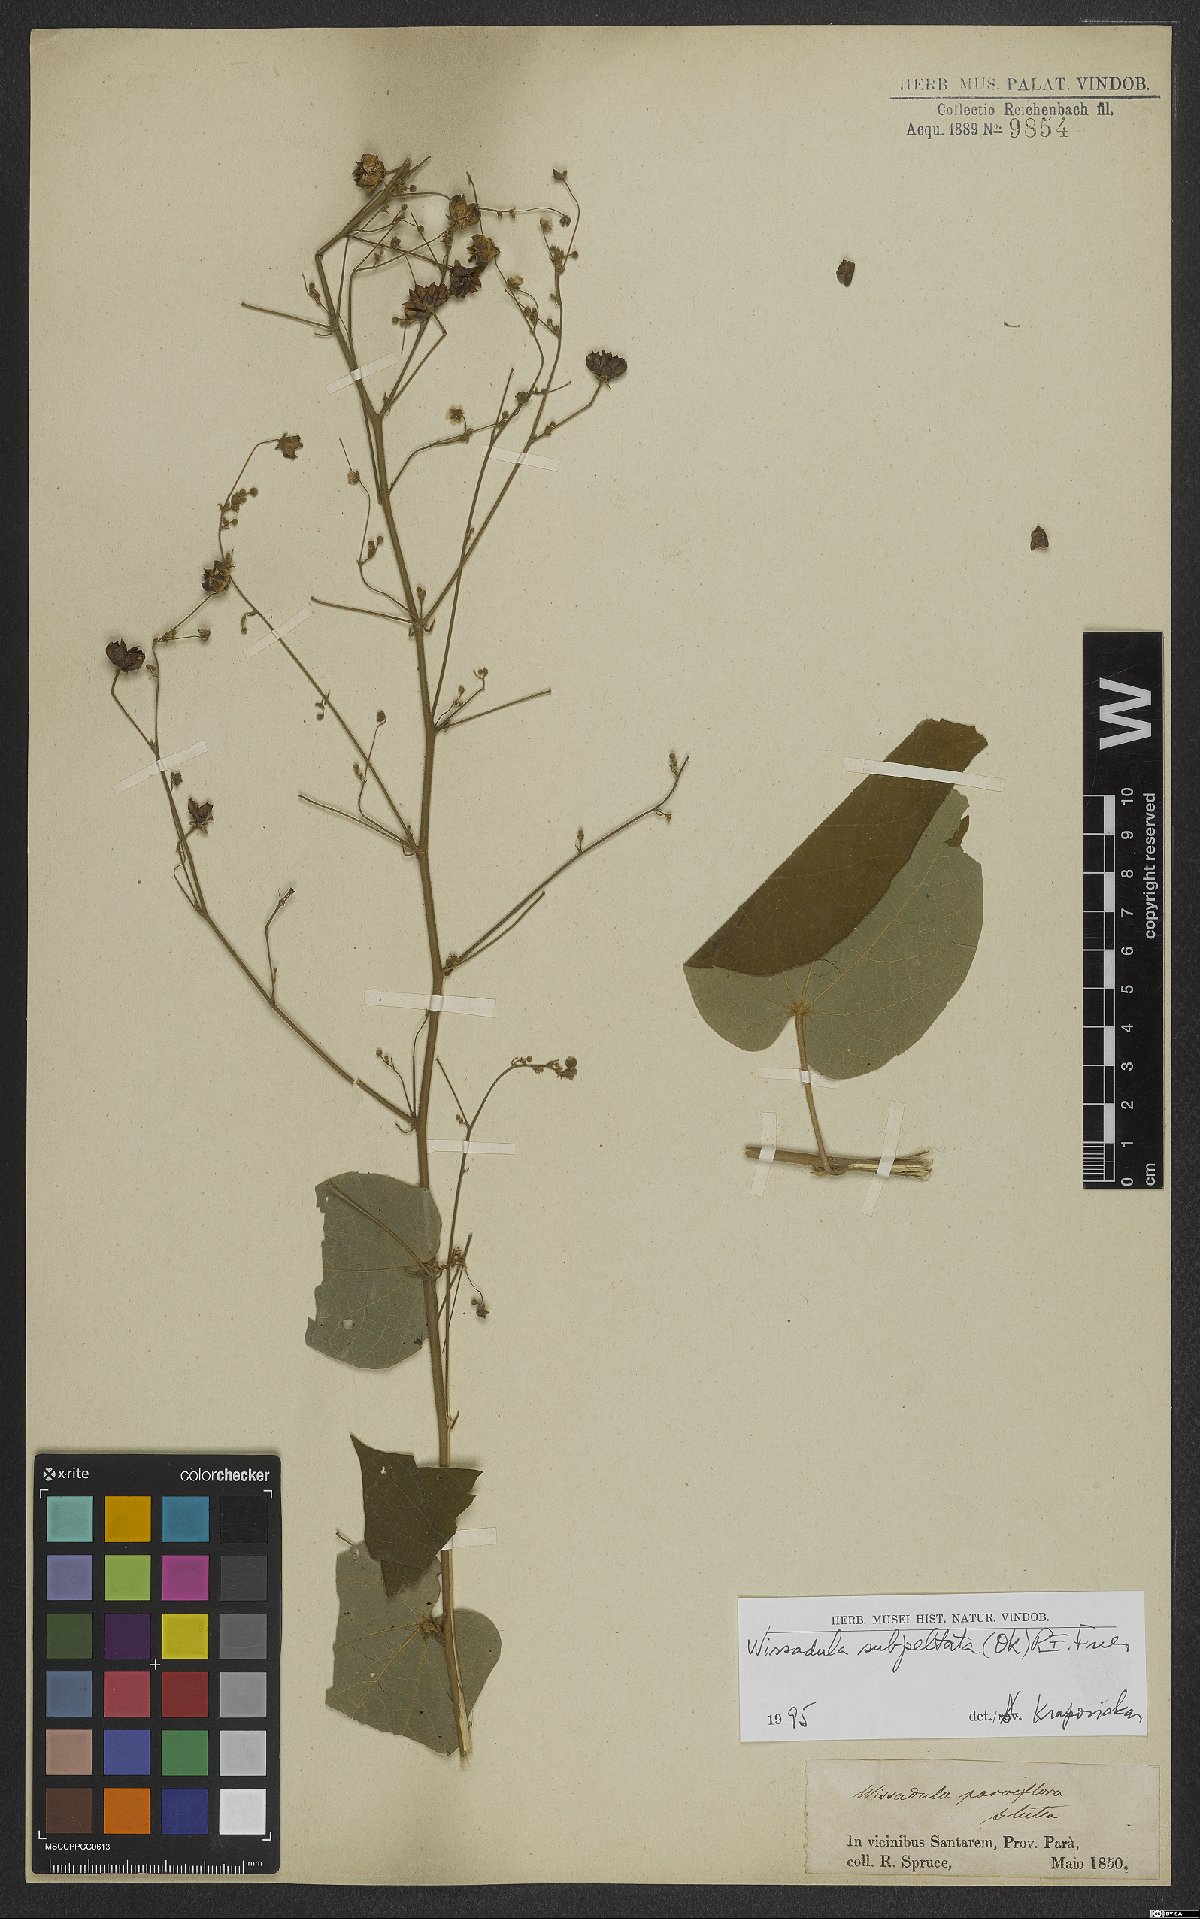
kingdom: Plantae
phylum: Tracheophyta
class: Magnoliopsida
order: Malvales
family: Malvaceae
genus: Wissadula
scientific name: Wissadula subpeltata
